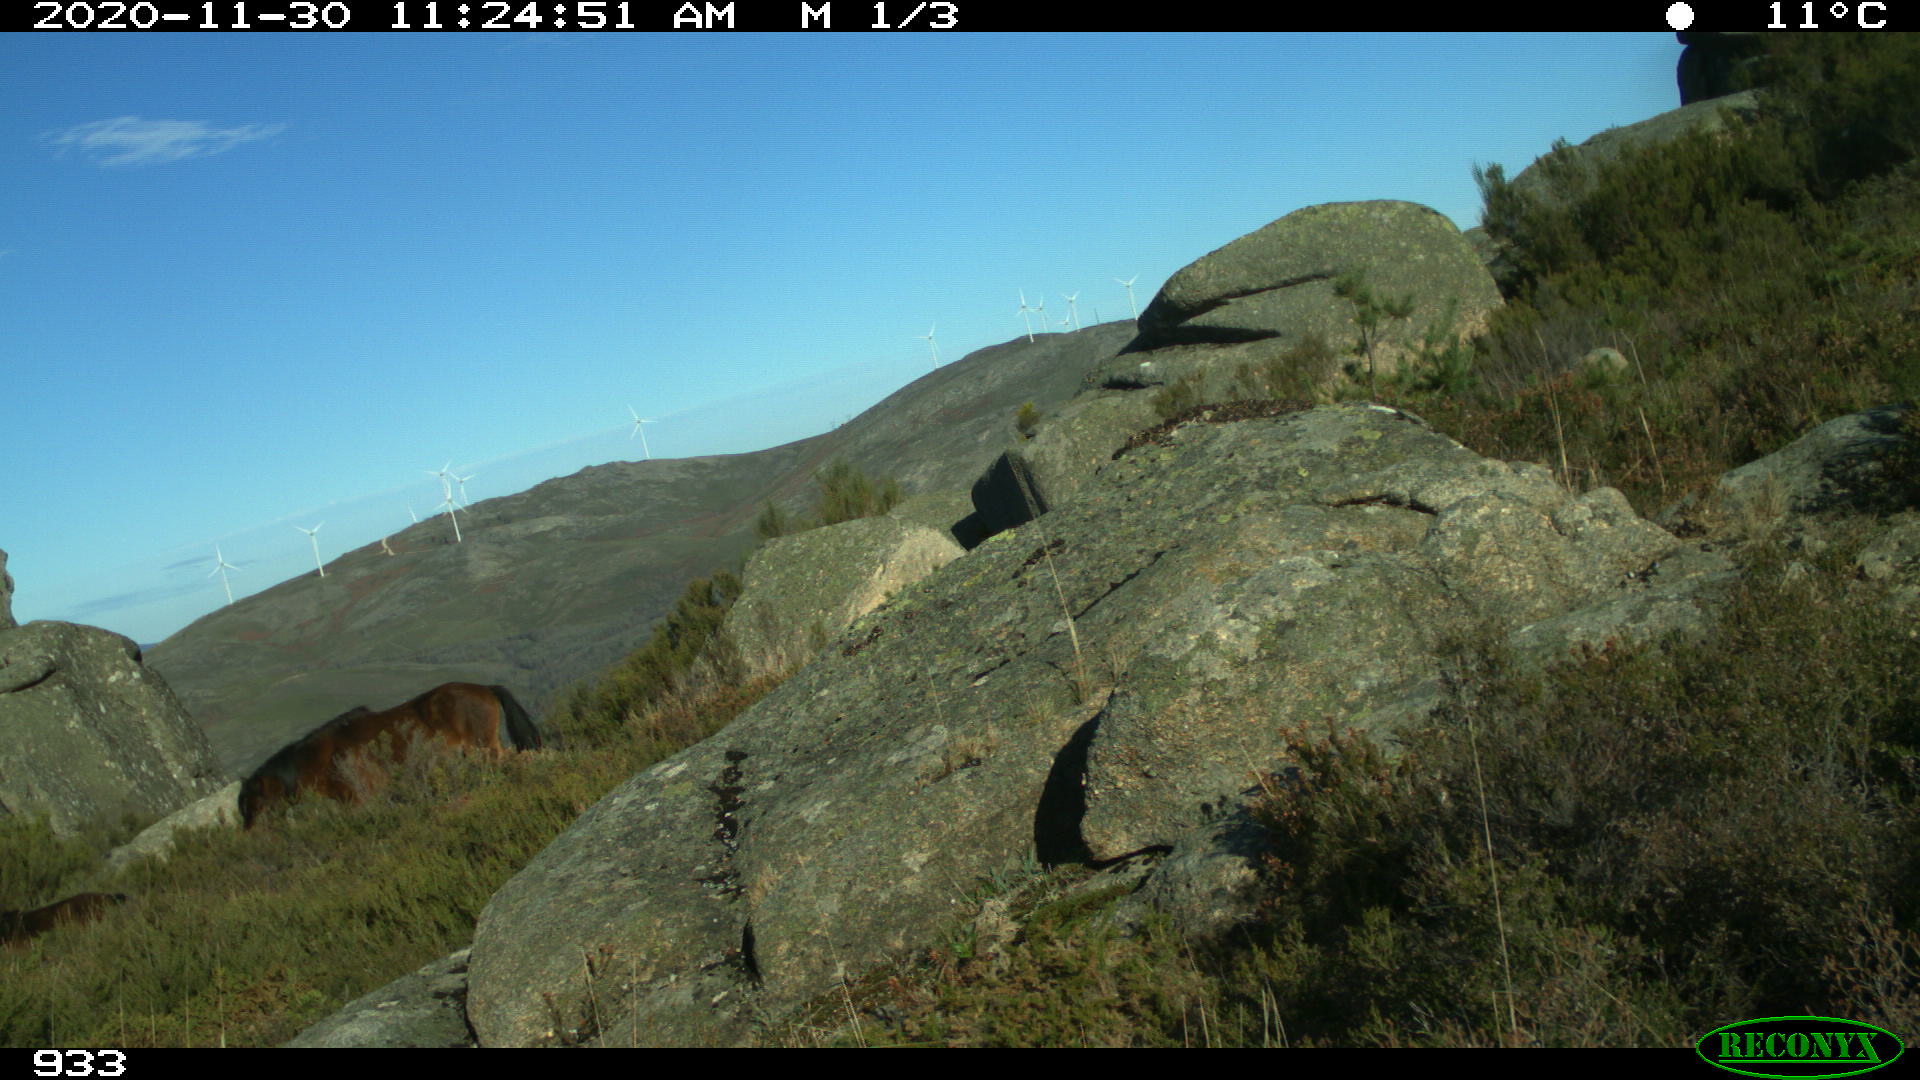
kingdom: Animalia
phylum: Chordata
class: Mammalia
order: Perissodactyla
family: Equidae
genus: Equus
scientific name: Equus caballus
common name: Horse
